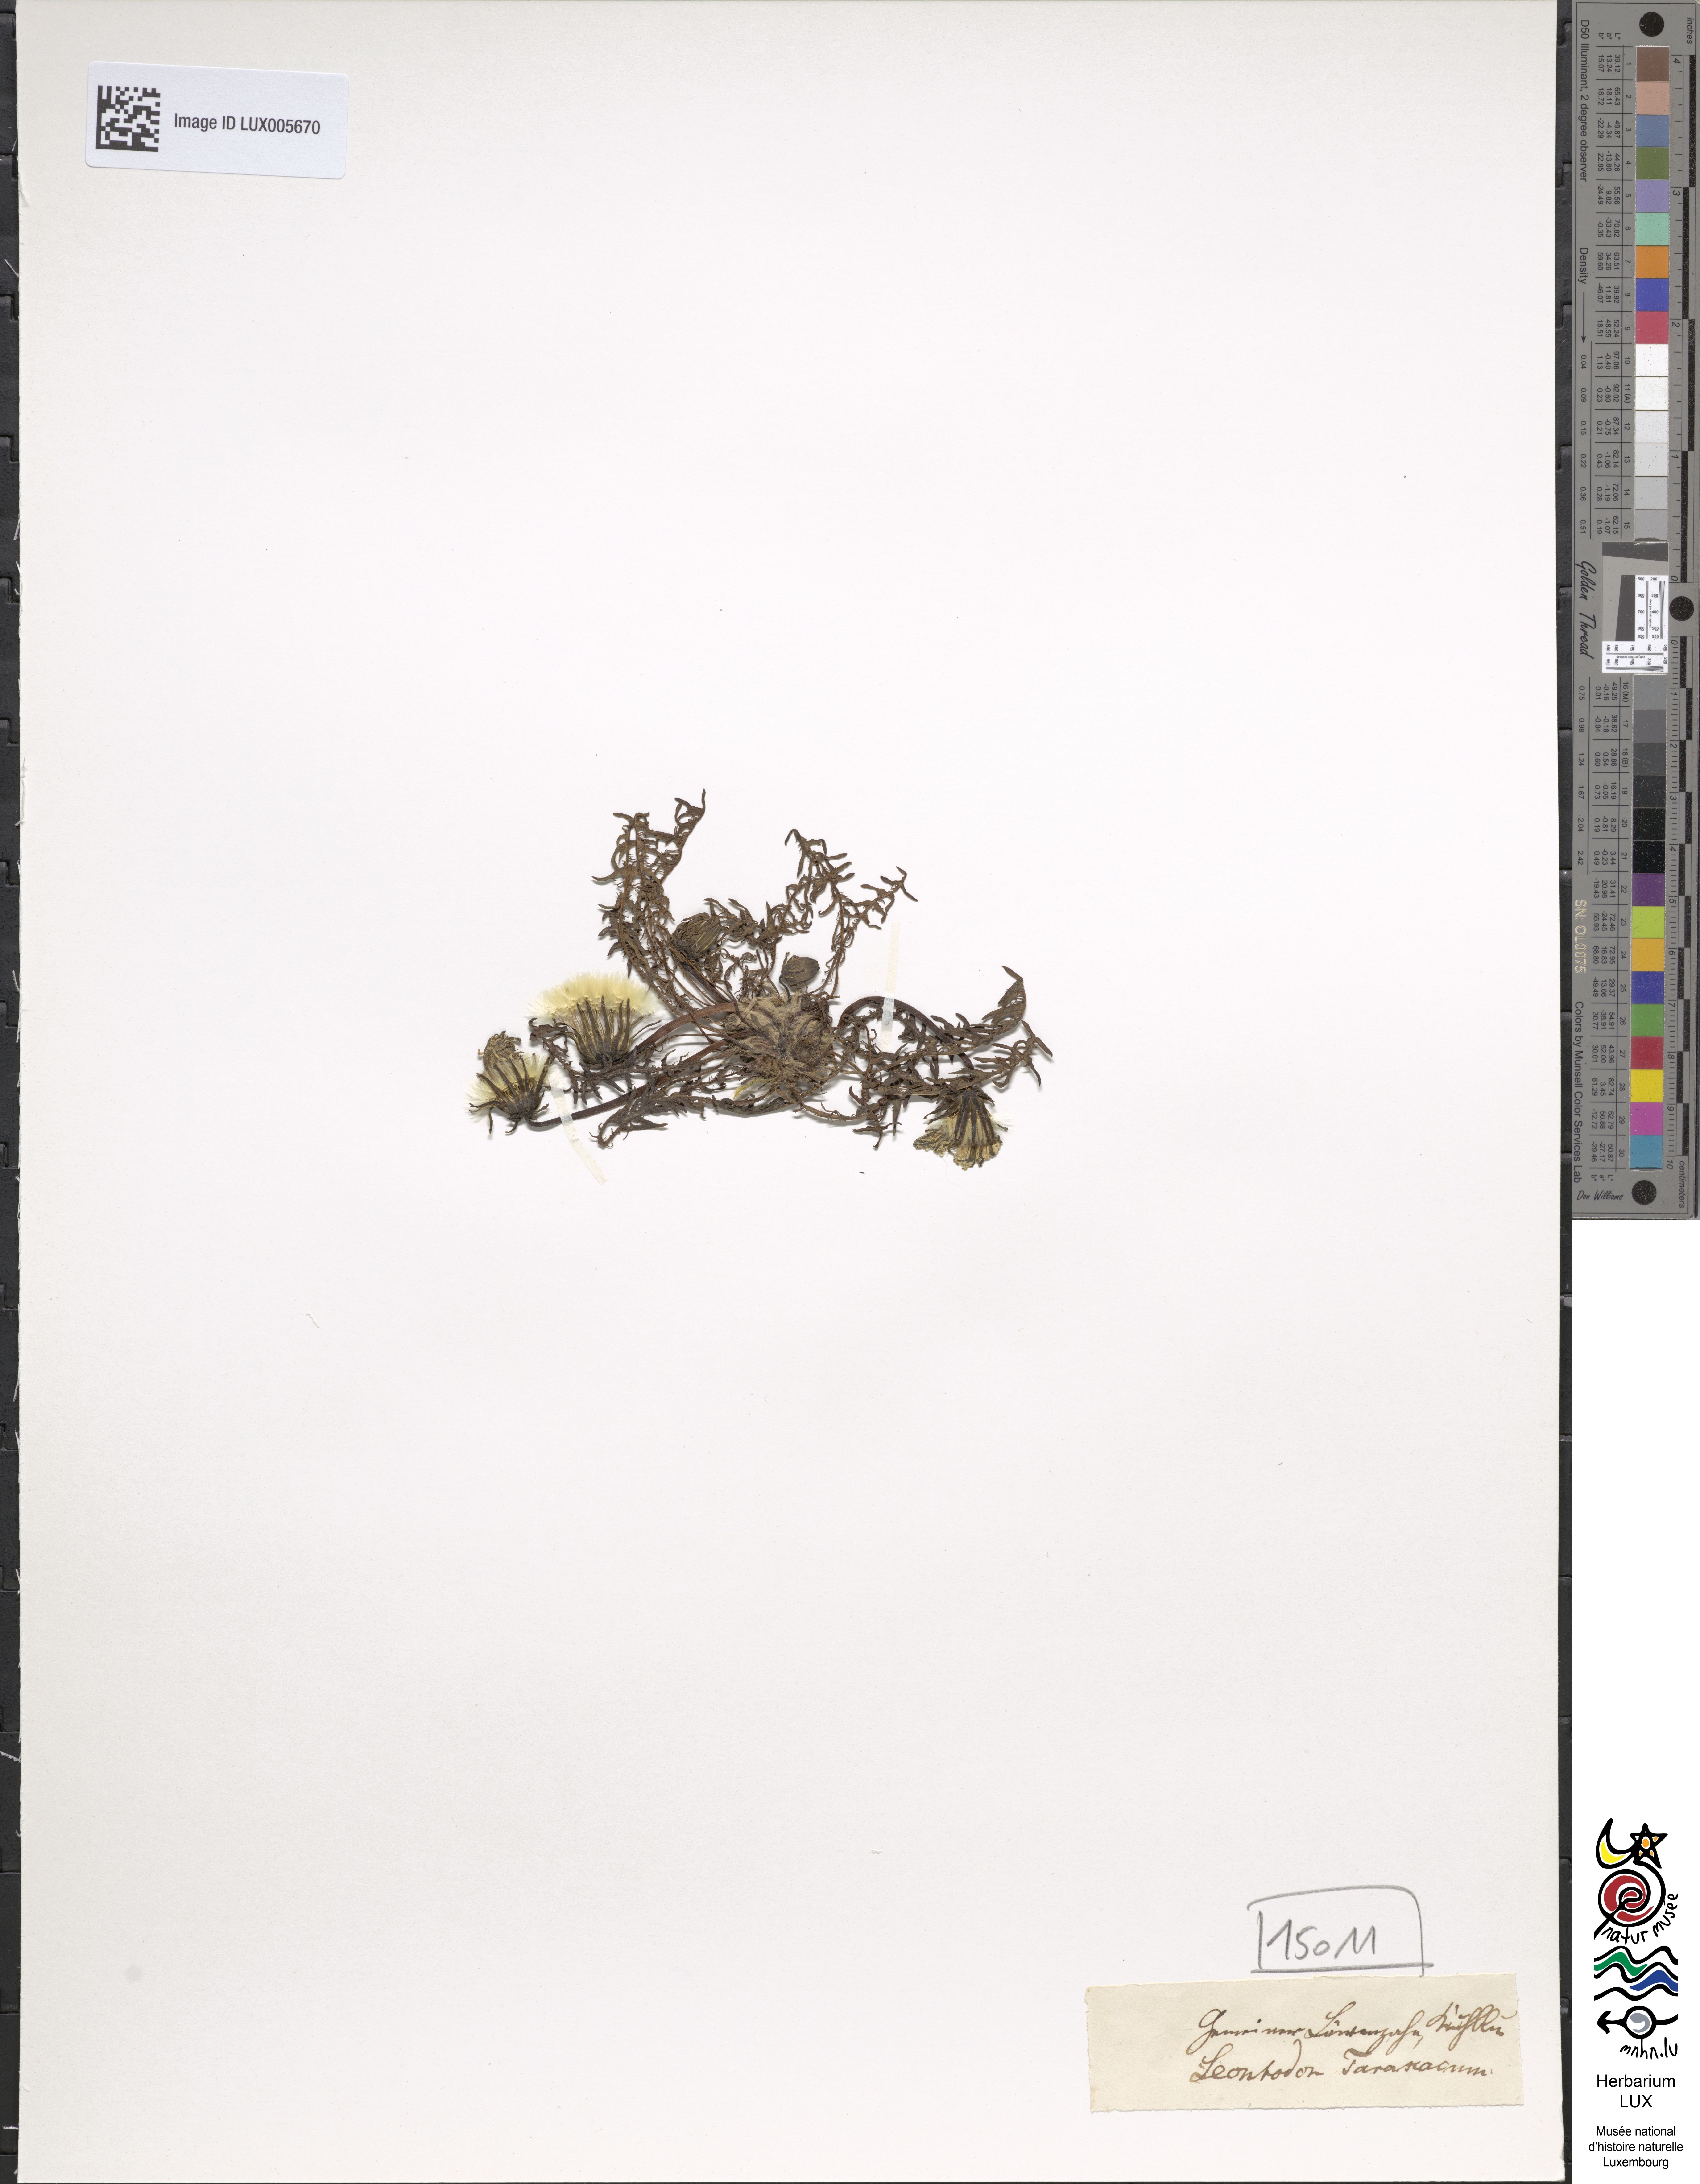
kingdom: Plantae
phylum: Tracheophyta
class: Magnoliopsida
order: Asterales
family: Asteraceae
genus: Taraxacum
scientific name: Taraxacum palustre
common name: Marsh dandelion
